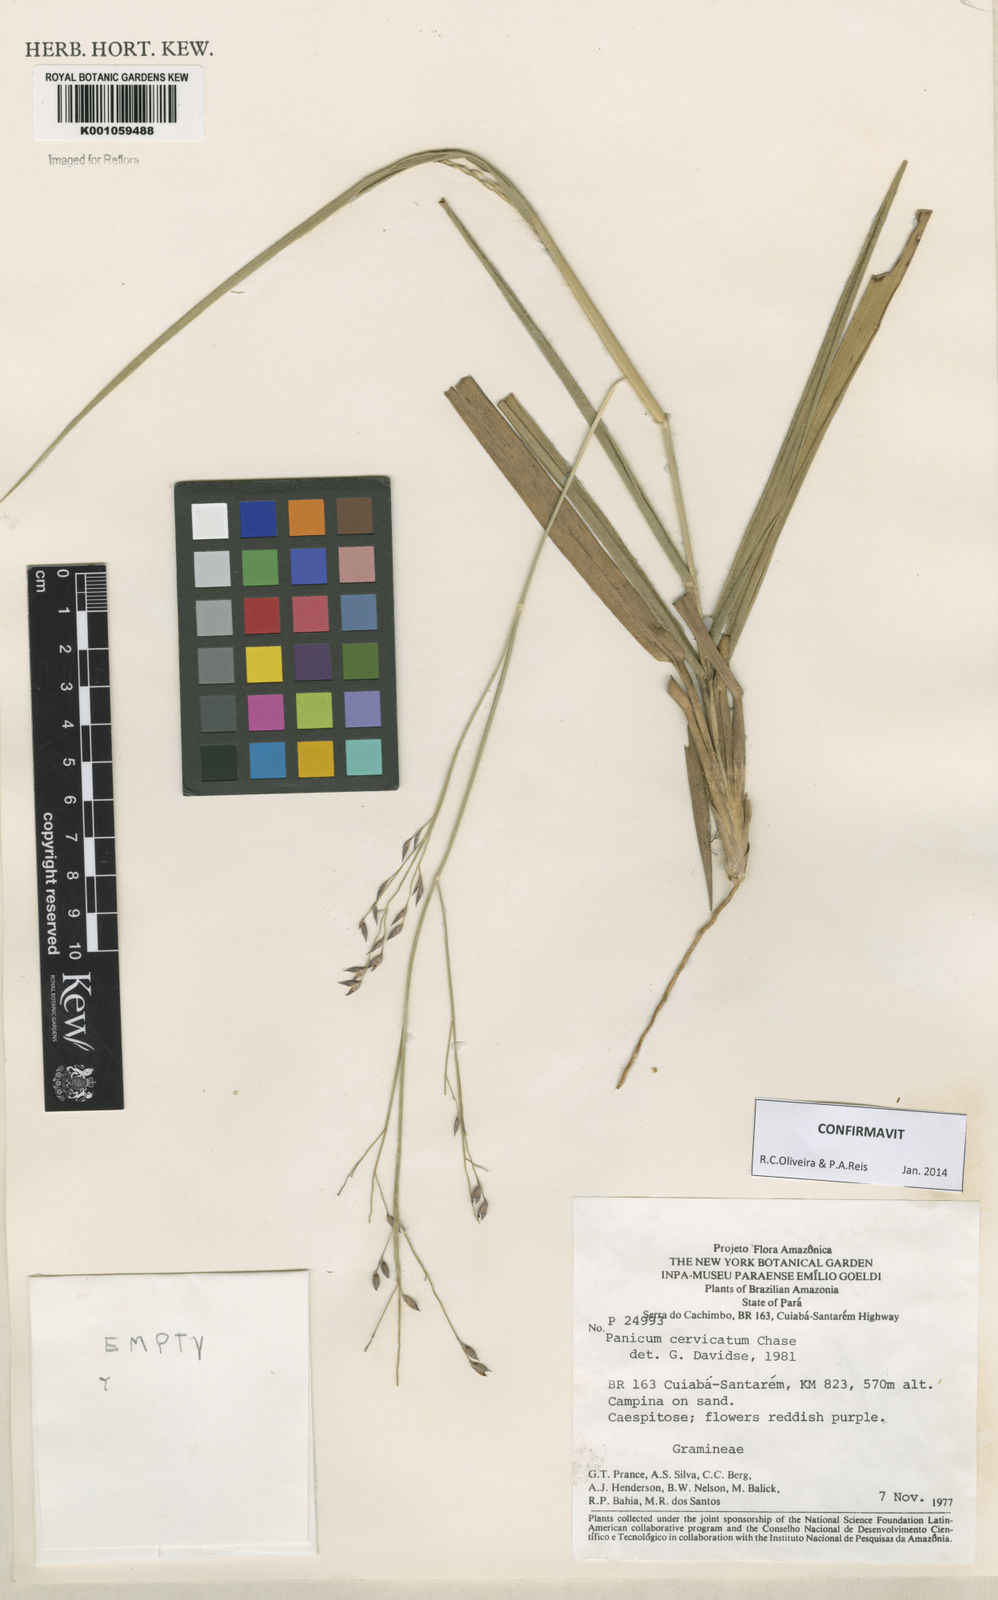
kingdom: Plantae
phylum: Tracheophyta
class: Liliopsida
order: Poales
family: Poaceae
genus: Panicum
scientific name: Panicum cervicatum
